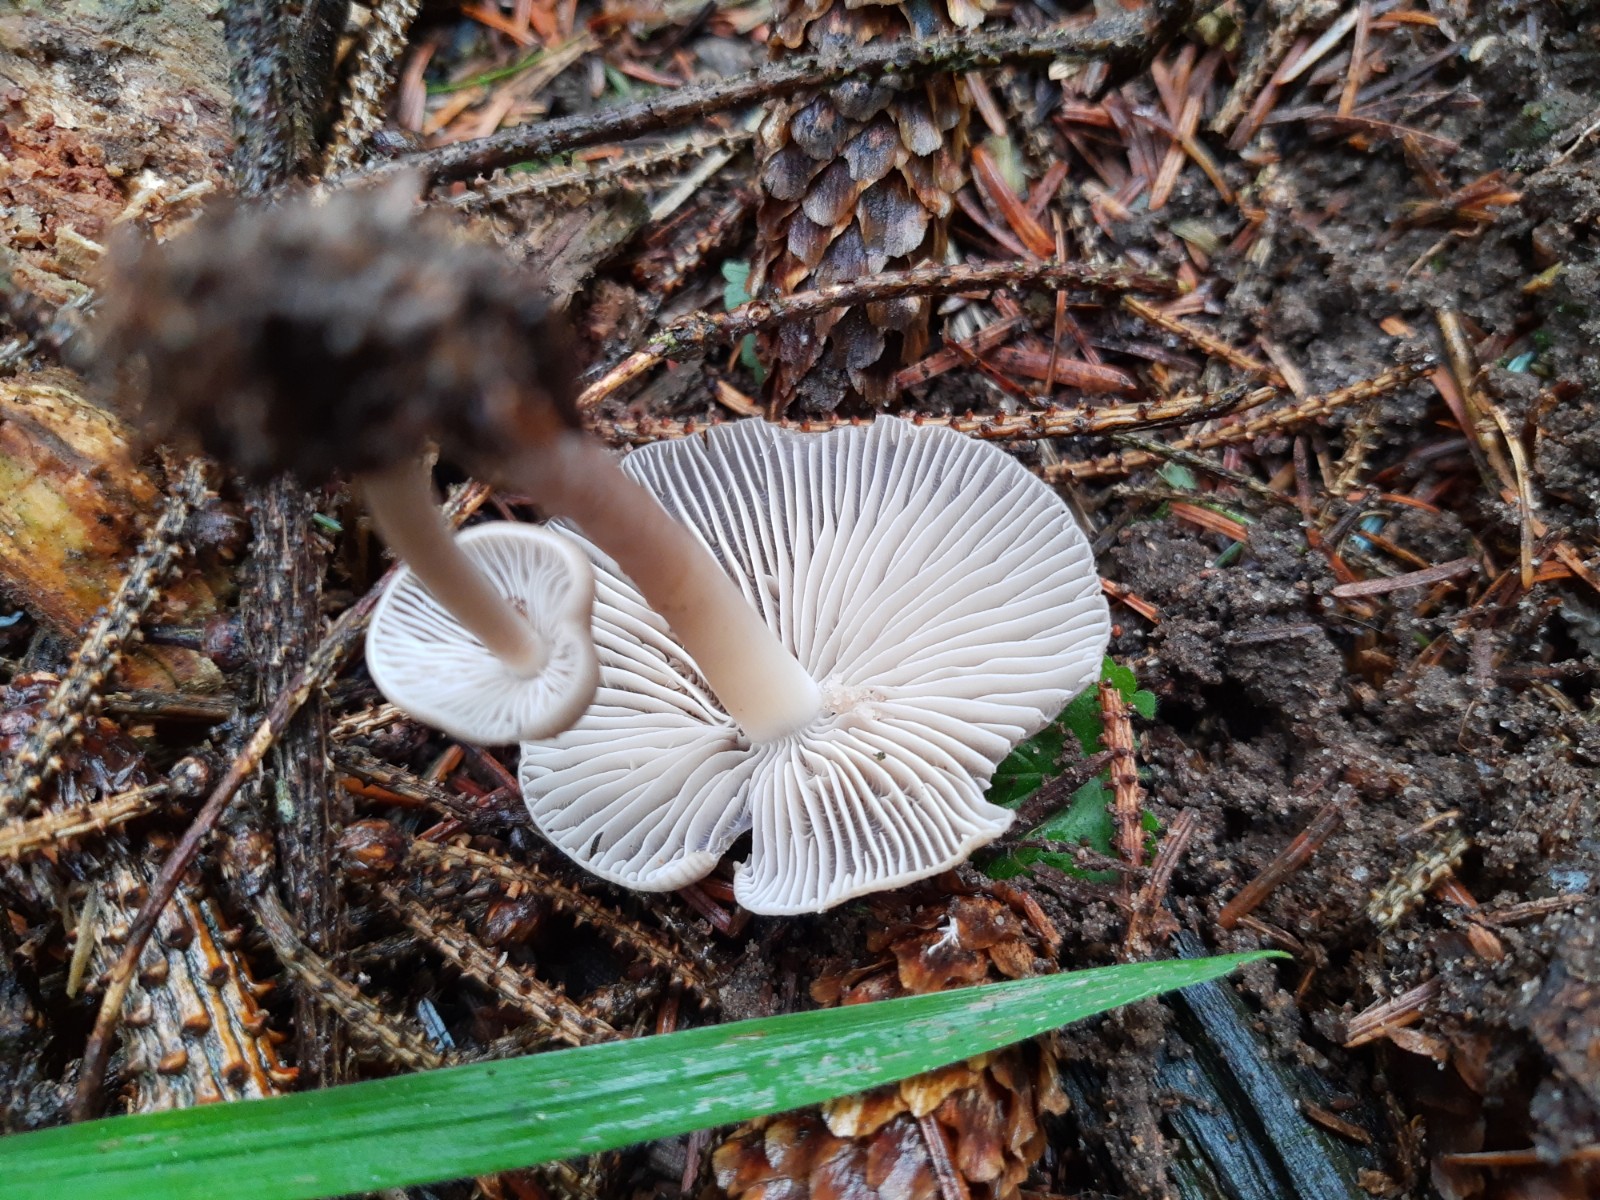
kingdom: Fungi
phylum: Basidiomycota
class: Agaricomycetes
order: Agaricales
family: Mycenaceae
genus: Mycena
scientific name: Mycena galericulata
